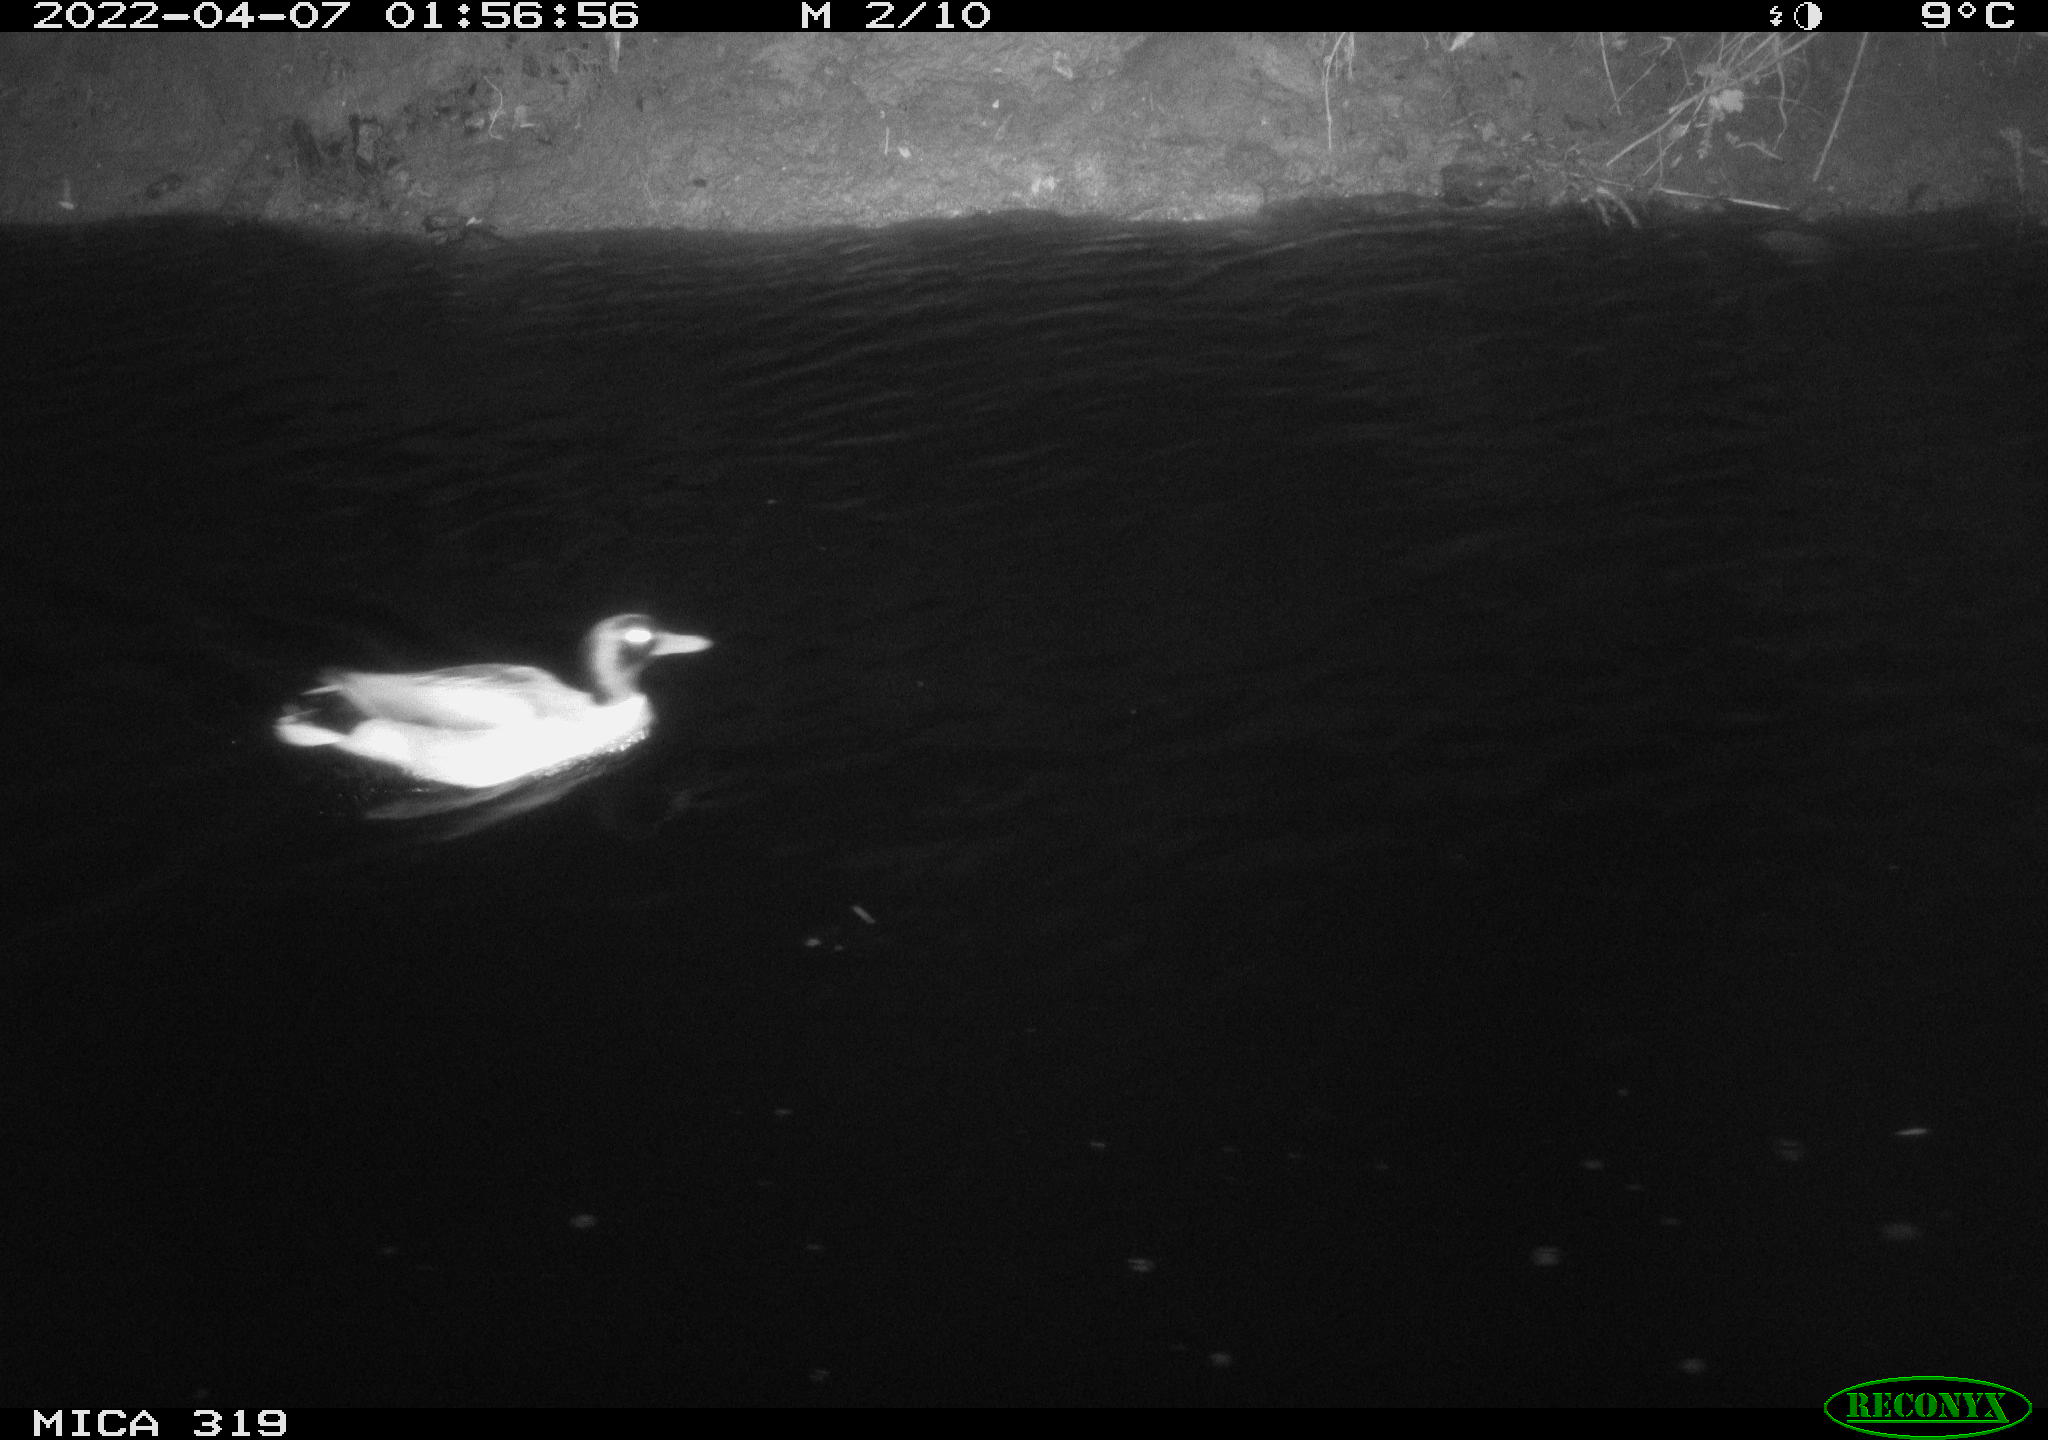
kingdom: Animalia
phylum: Chordata
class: Aves
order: Anseriformes
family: Anatidae
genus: Anas
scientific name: Anas platyrhynchos
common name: Mallard
